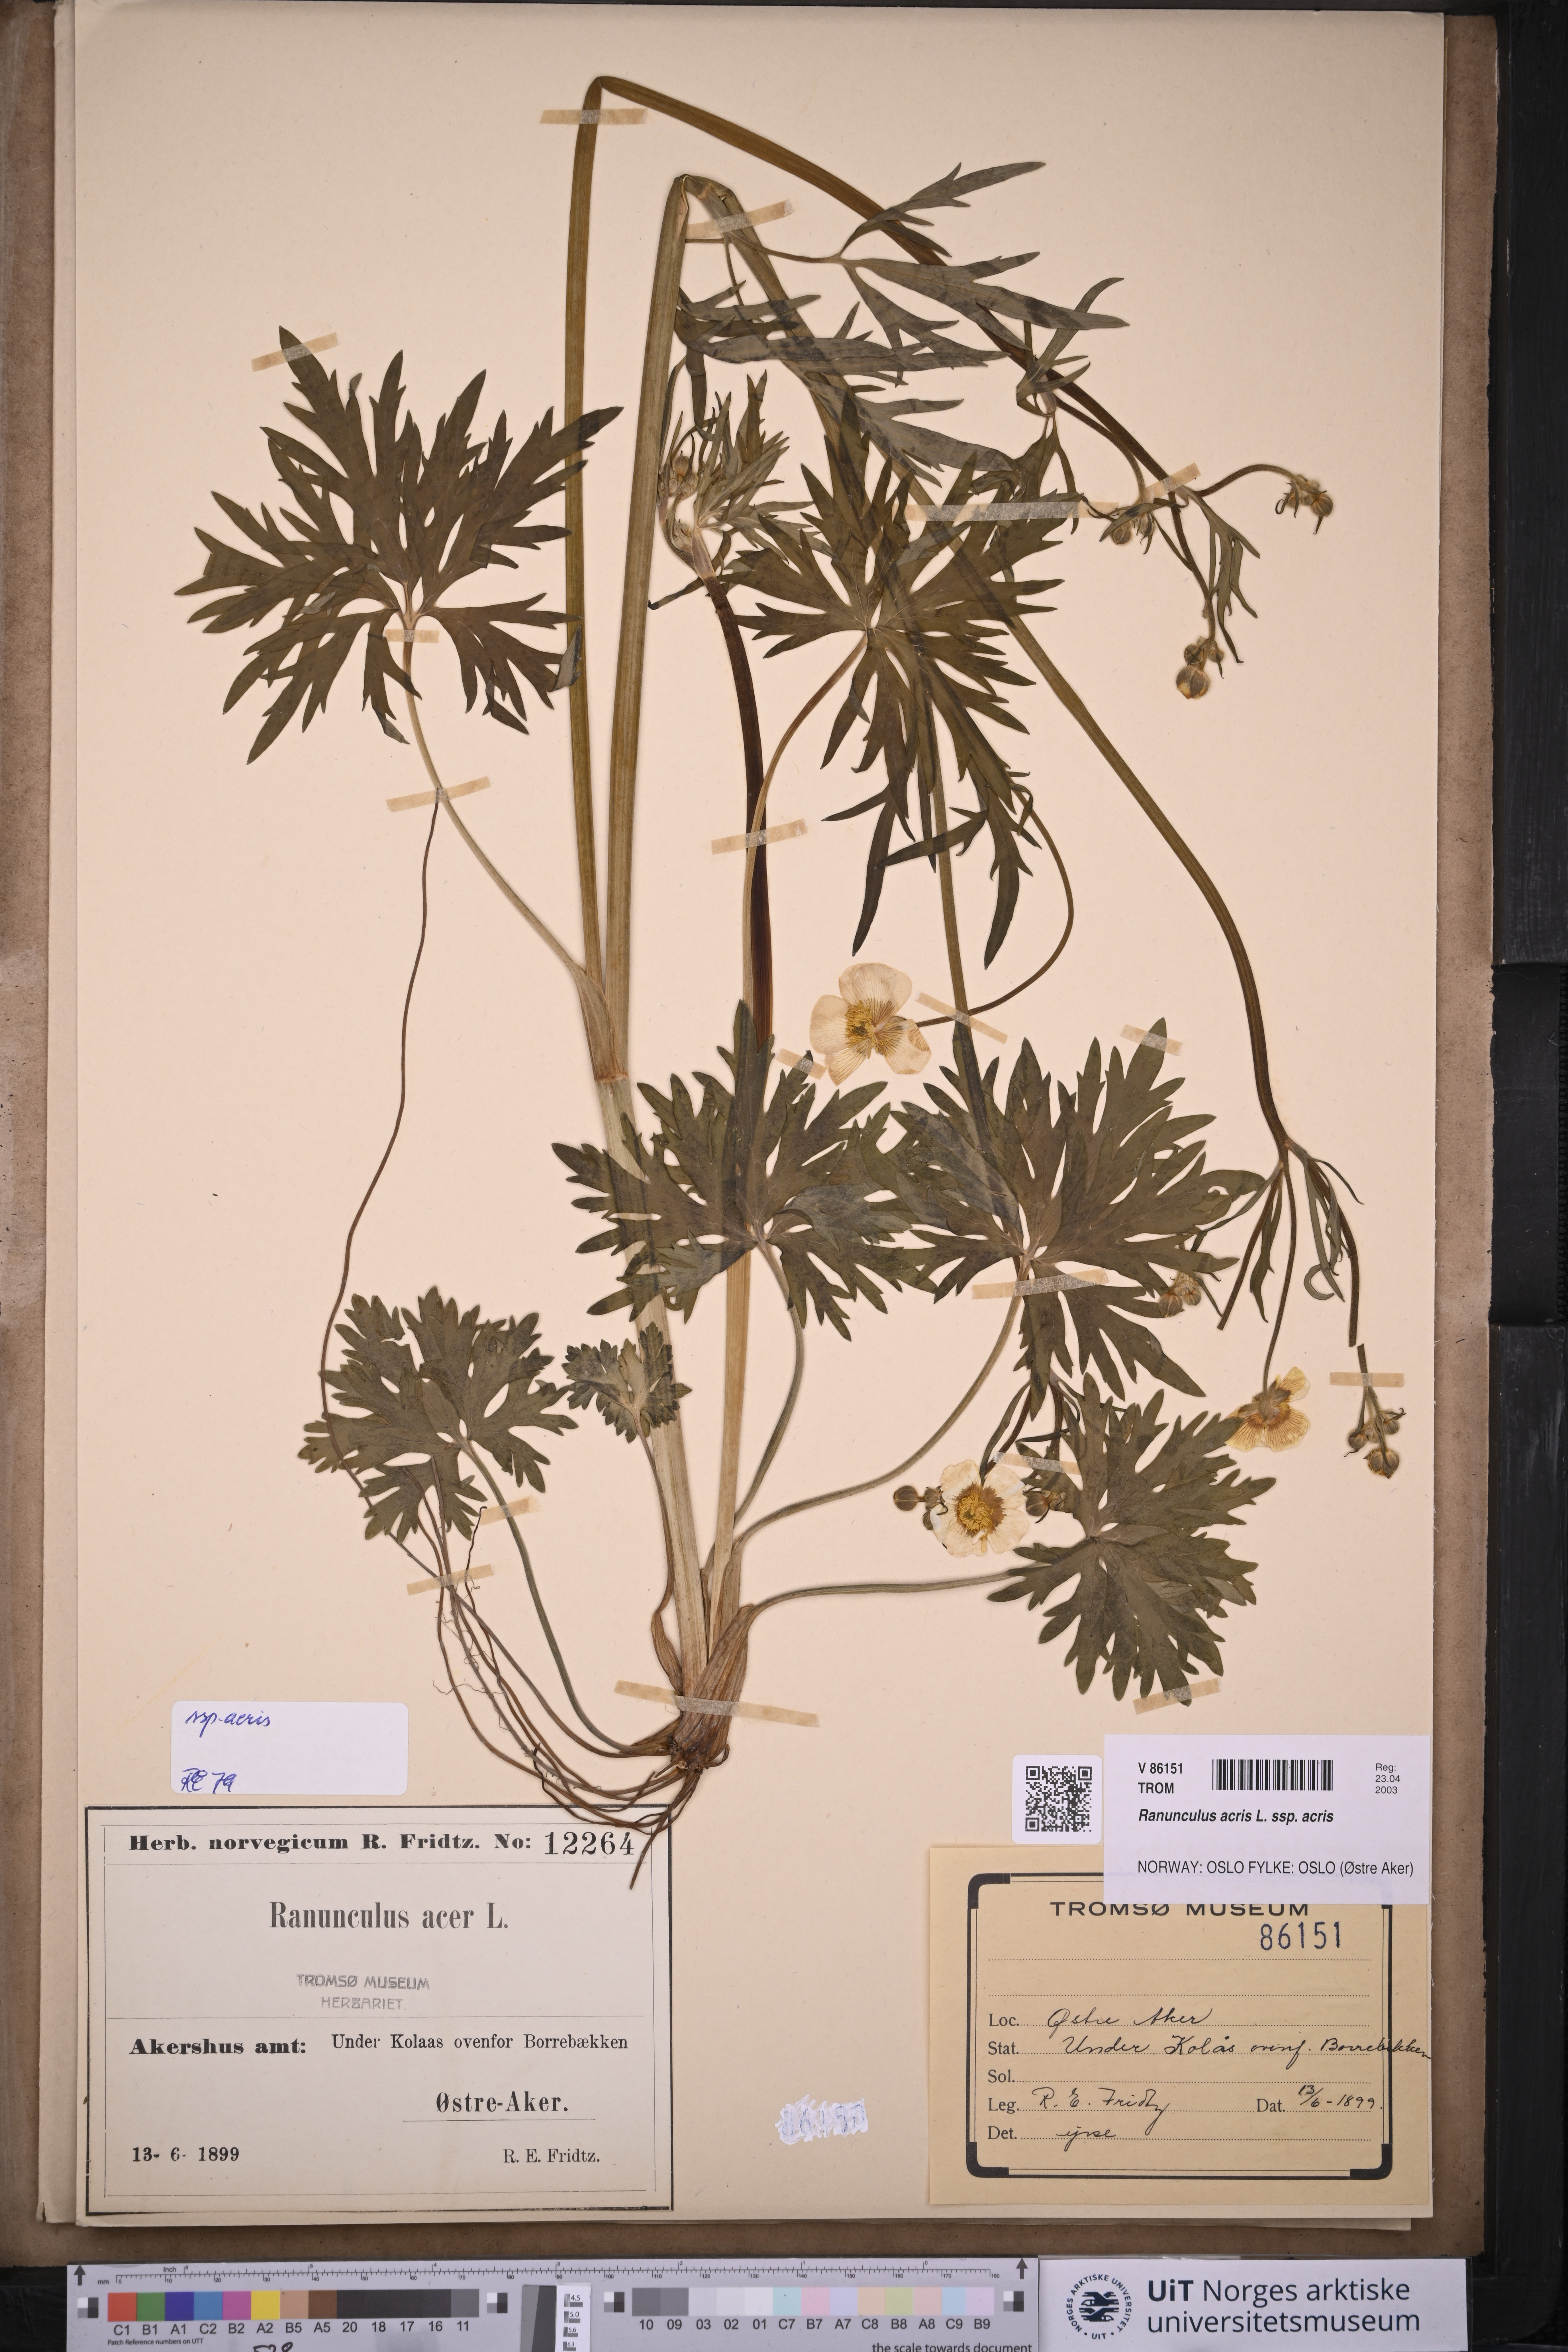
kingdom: Plantae
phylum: Tracheophyta
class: Magnoliopsida
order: Ranunculales
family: Ranunculaceae
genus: Ranunculus
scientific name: Ranunculus acris
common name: Meadow buttercup
